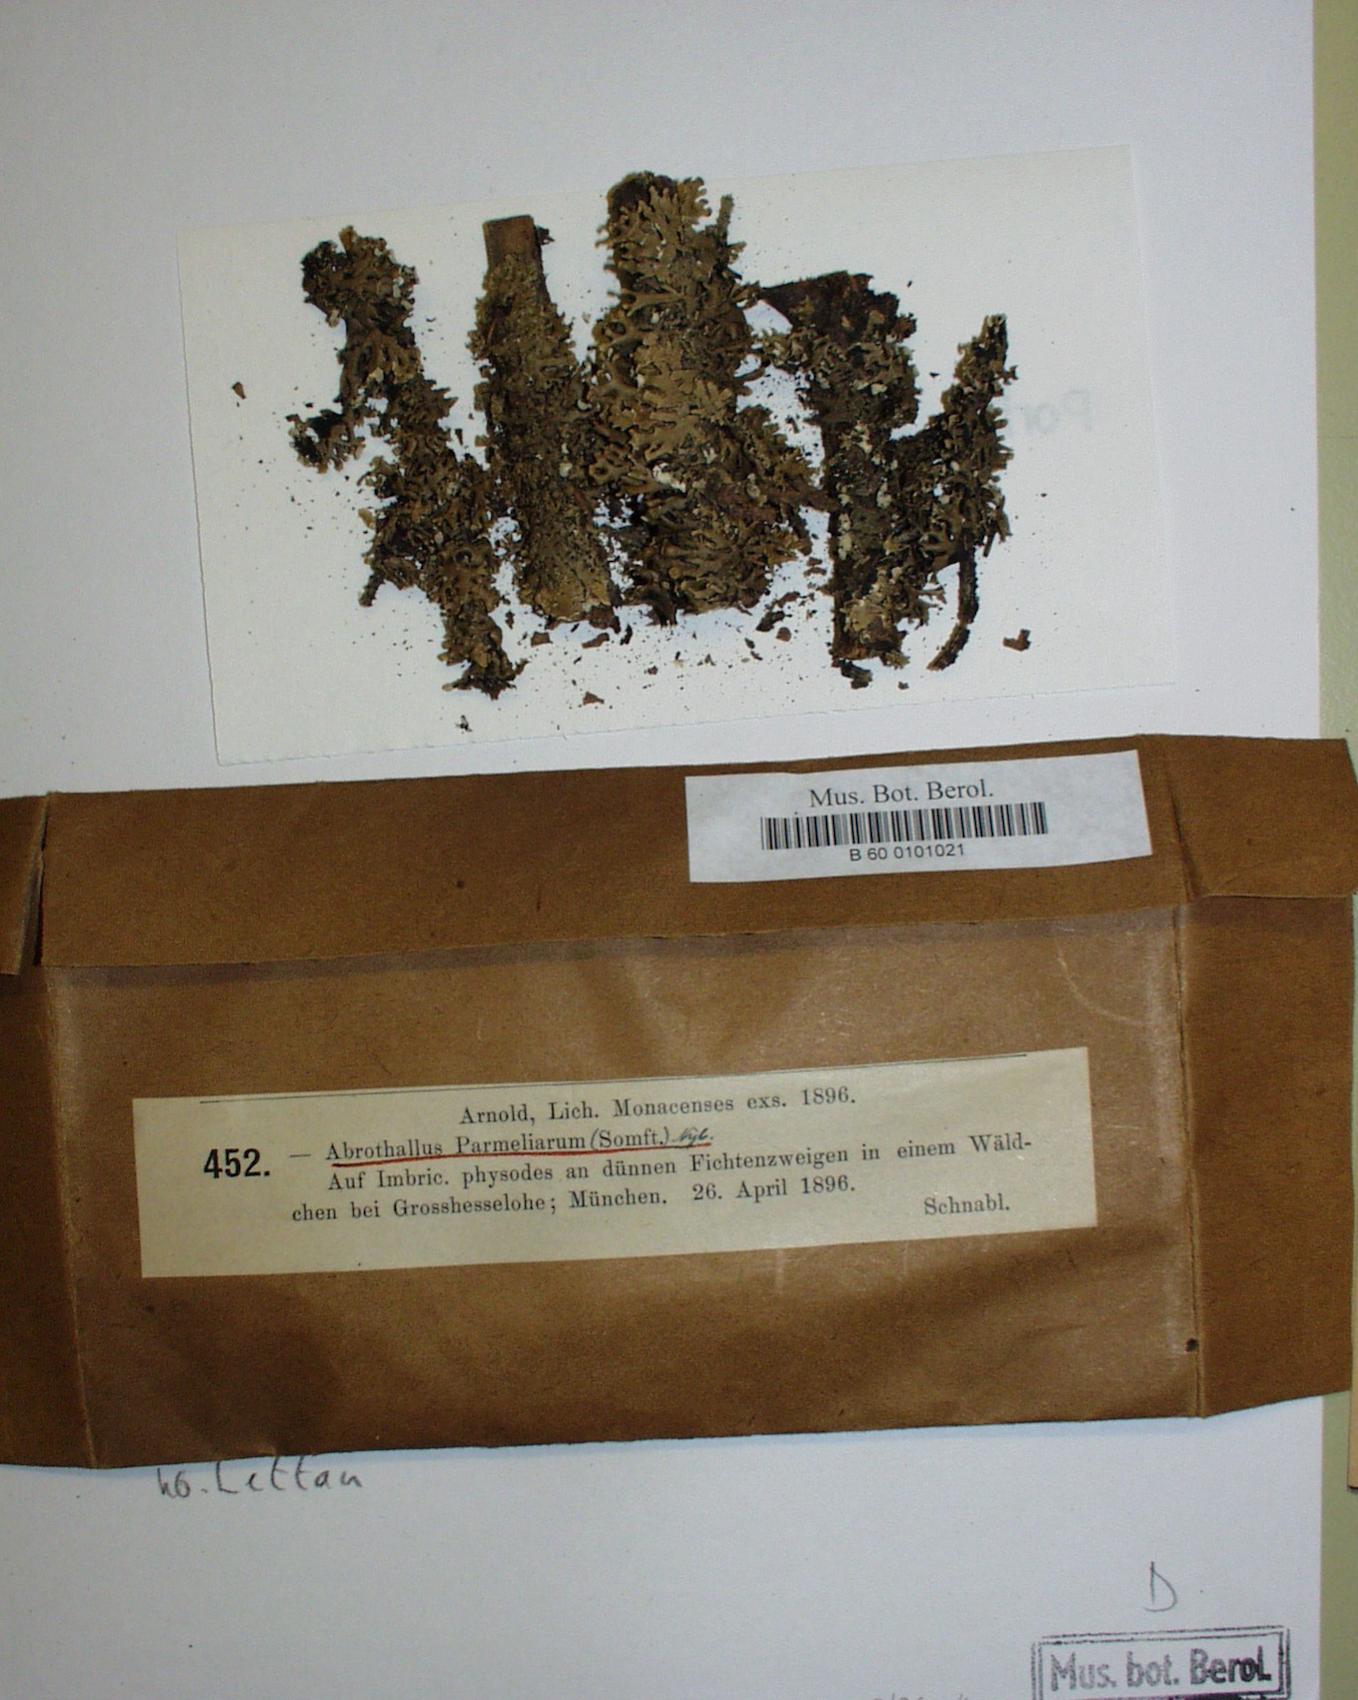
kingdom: Fungi
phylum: Ascomycota
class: Dothideomycetes
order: Abrothallales
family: Abrothallaceae
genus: Abrothallus
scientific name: Abrothallus parmeliarum
